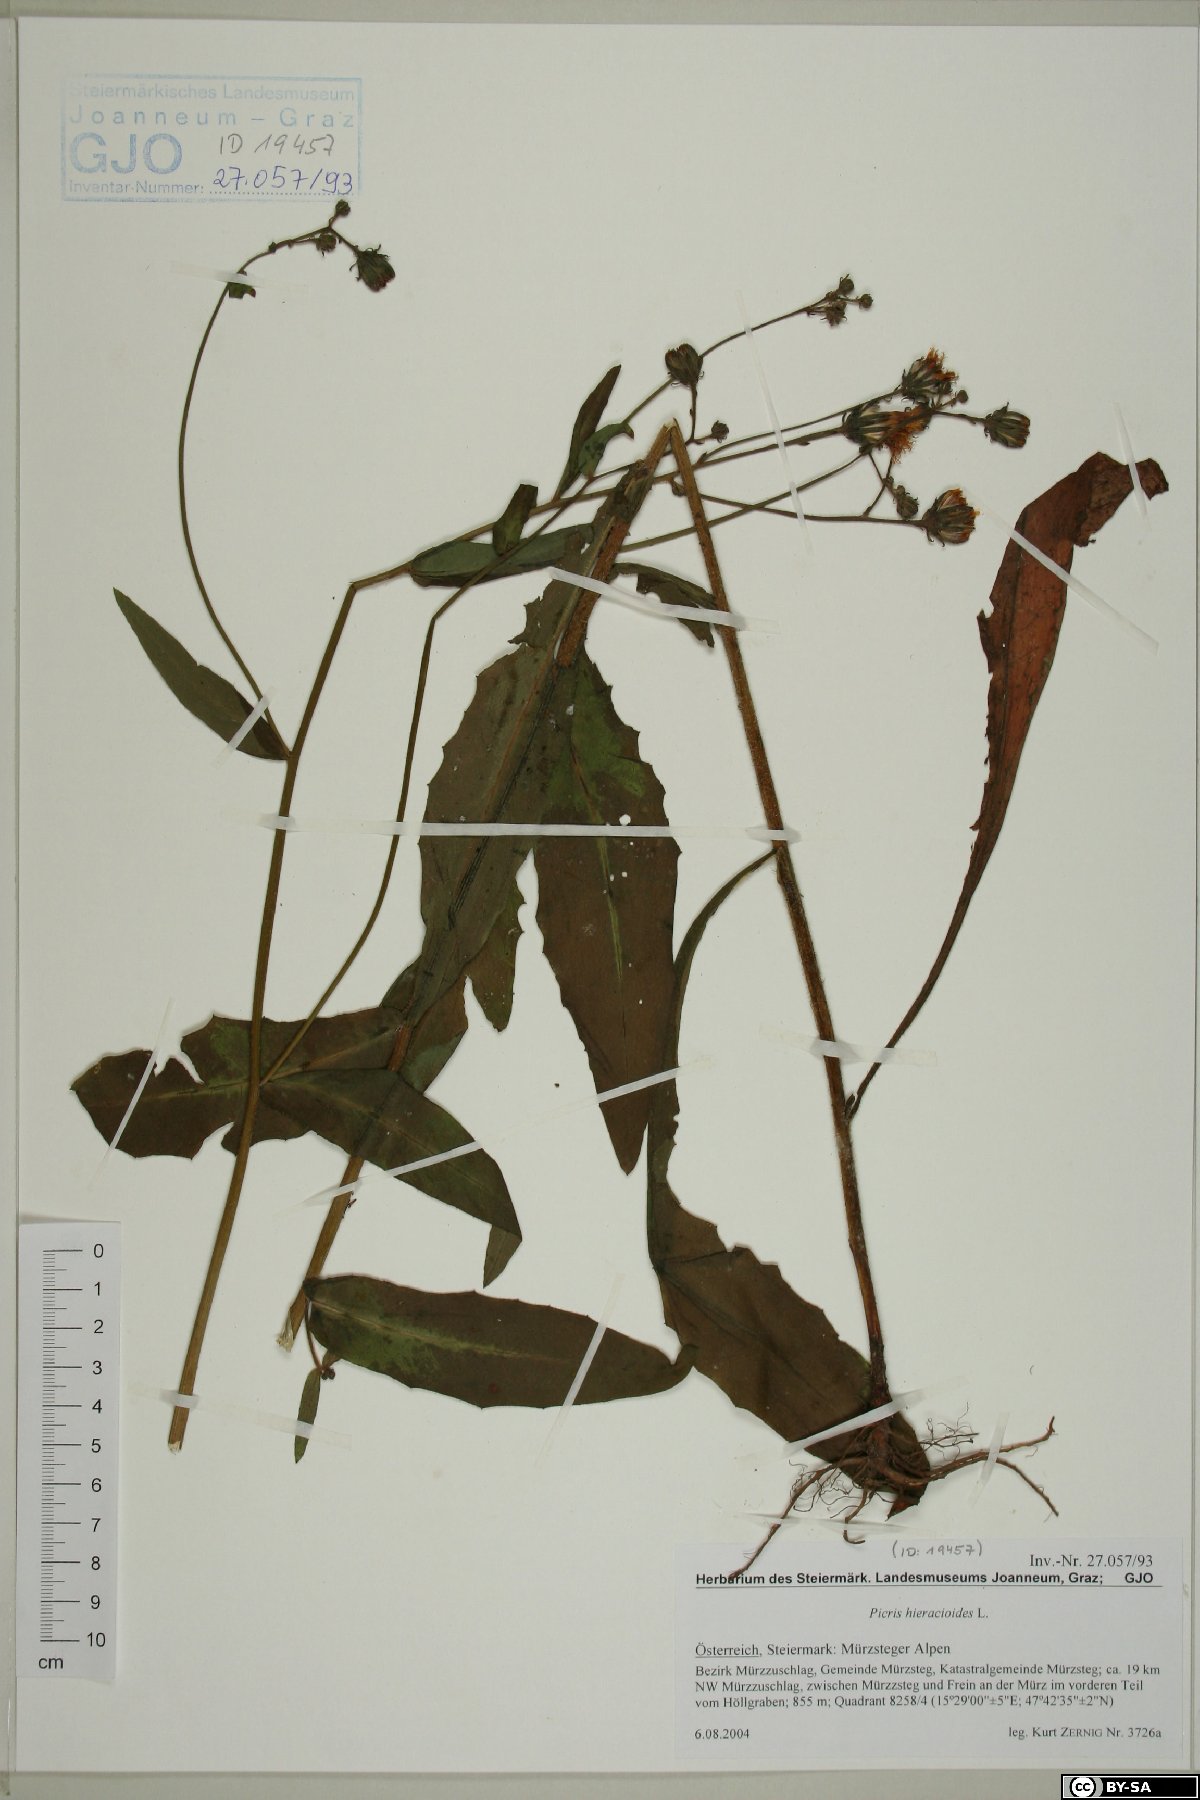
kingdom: Plantae
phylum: Tracheophyta
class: Magnoliopsida
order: Asterales
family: Asteraceae
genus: Picris
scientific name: Picris hieracioides
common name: Hawkweed oxtongue
